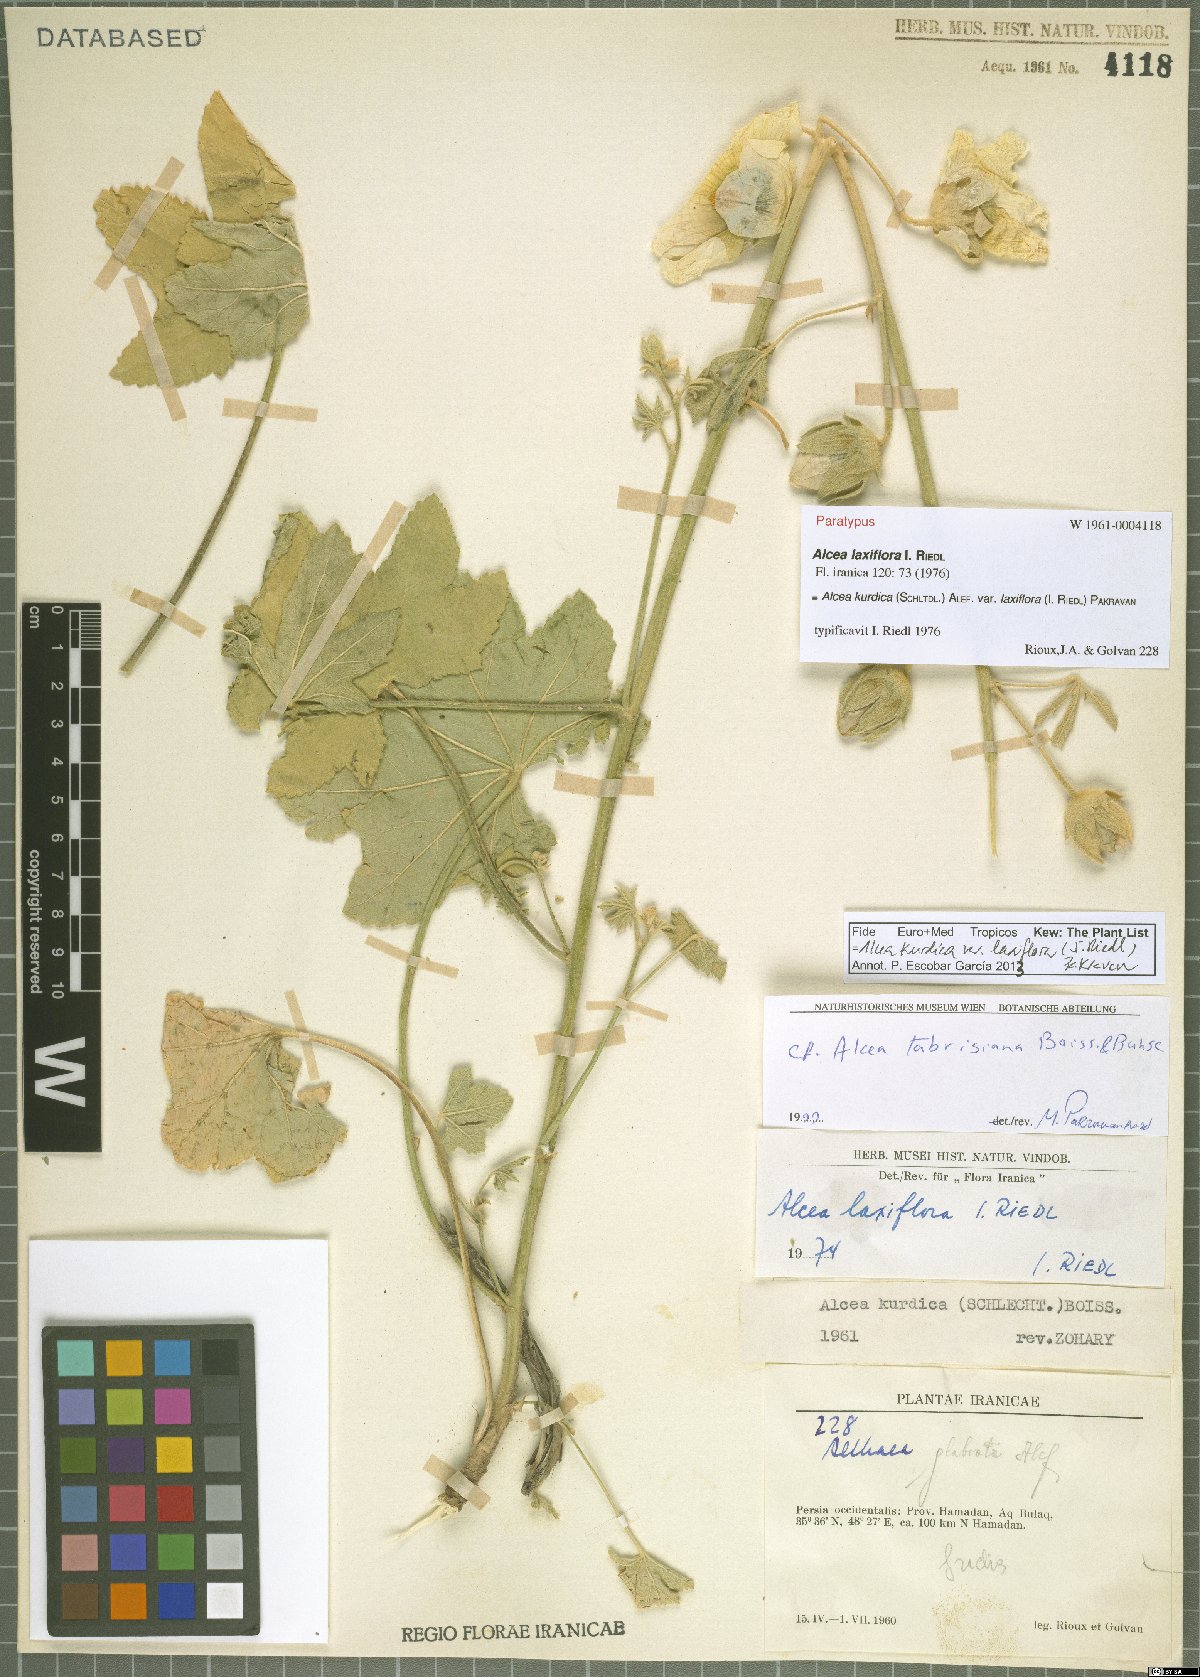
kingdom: Plantae
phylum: Tracheophyta
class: Magnoliopsida
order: Malvales
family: Malvaceae
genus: Alcea
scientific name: Alcea kurdica
